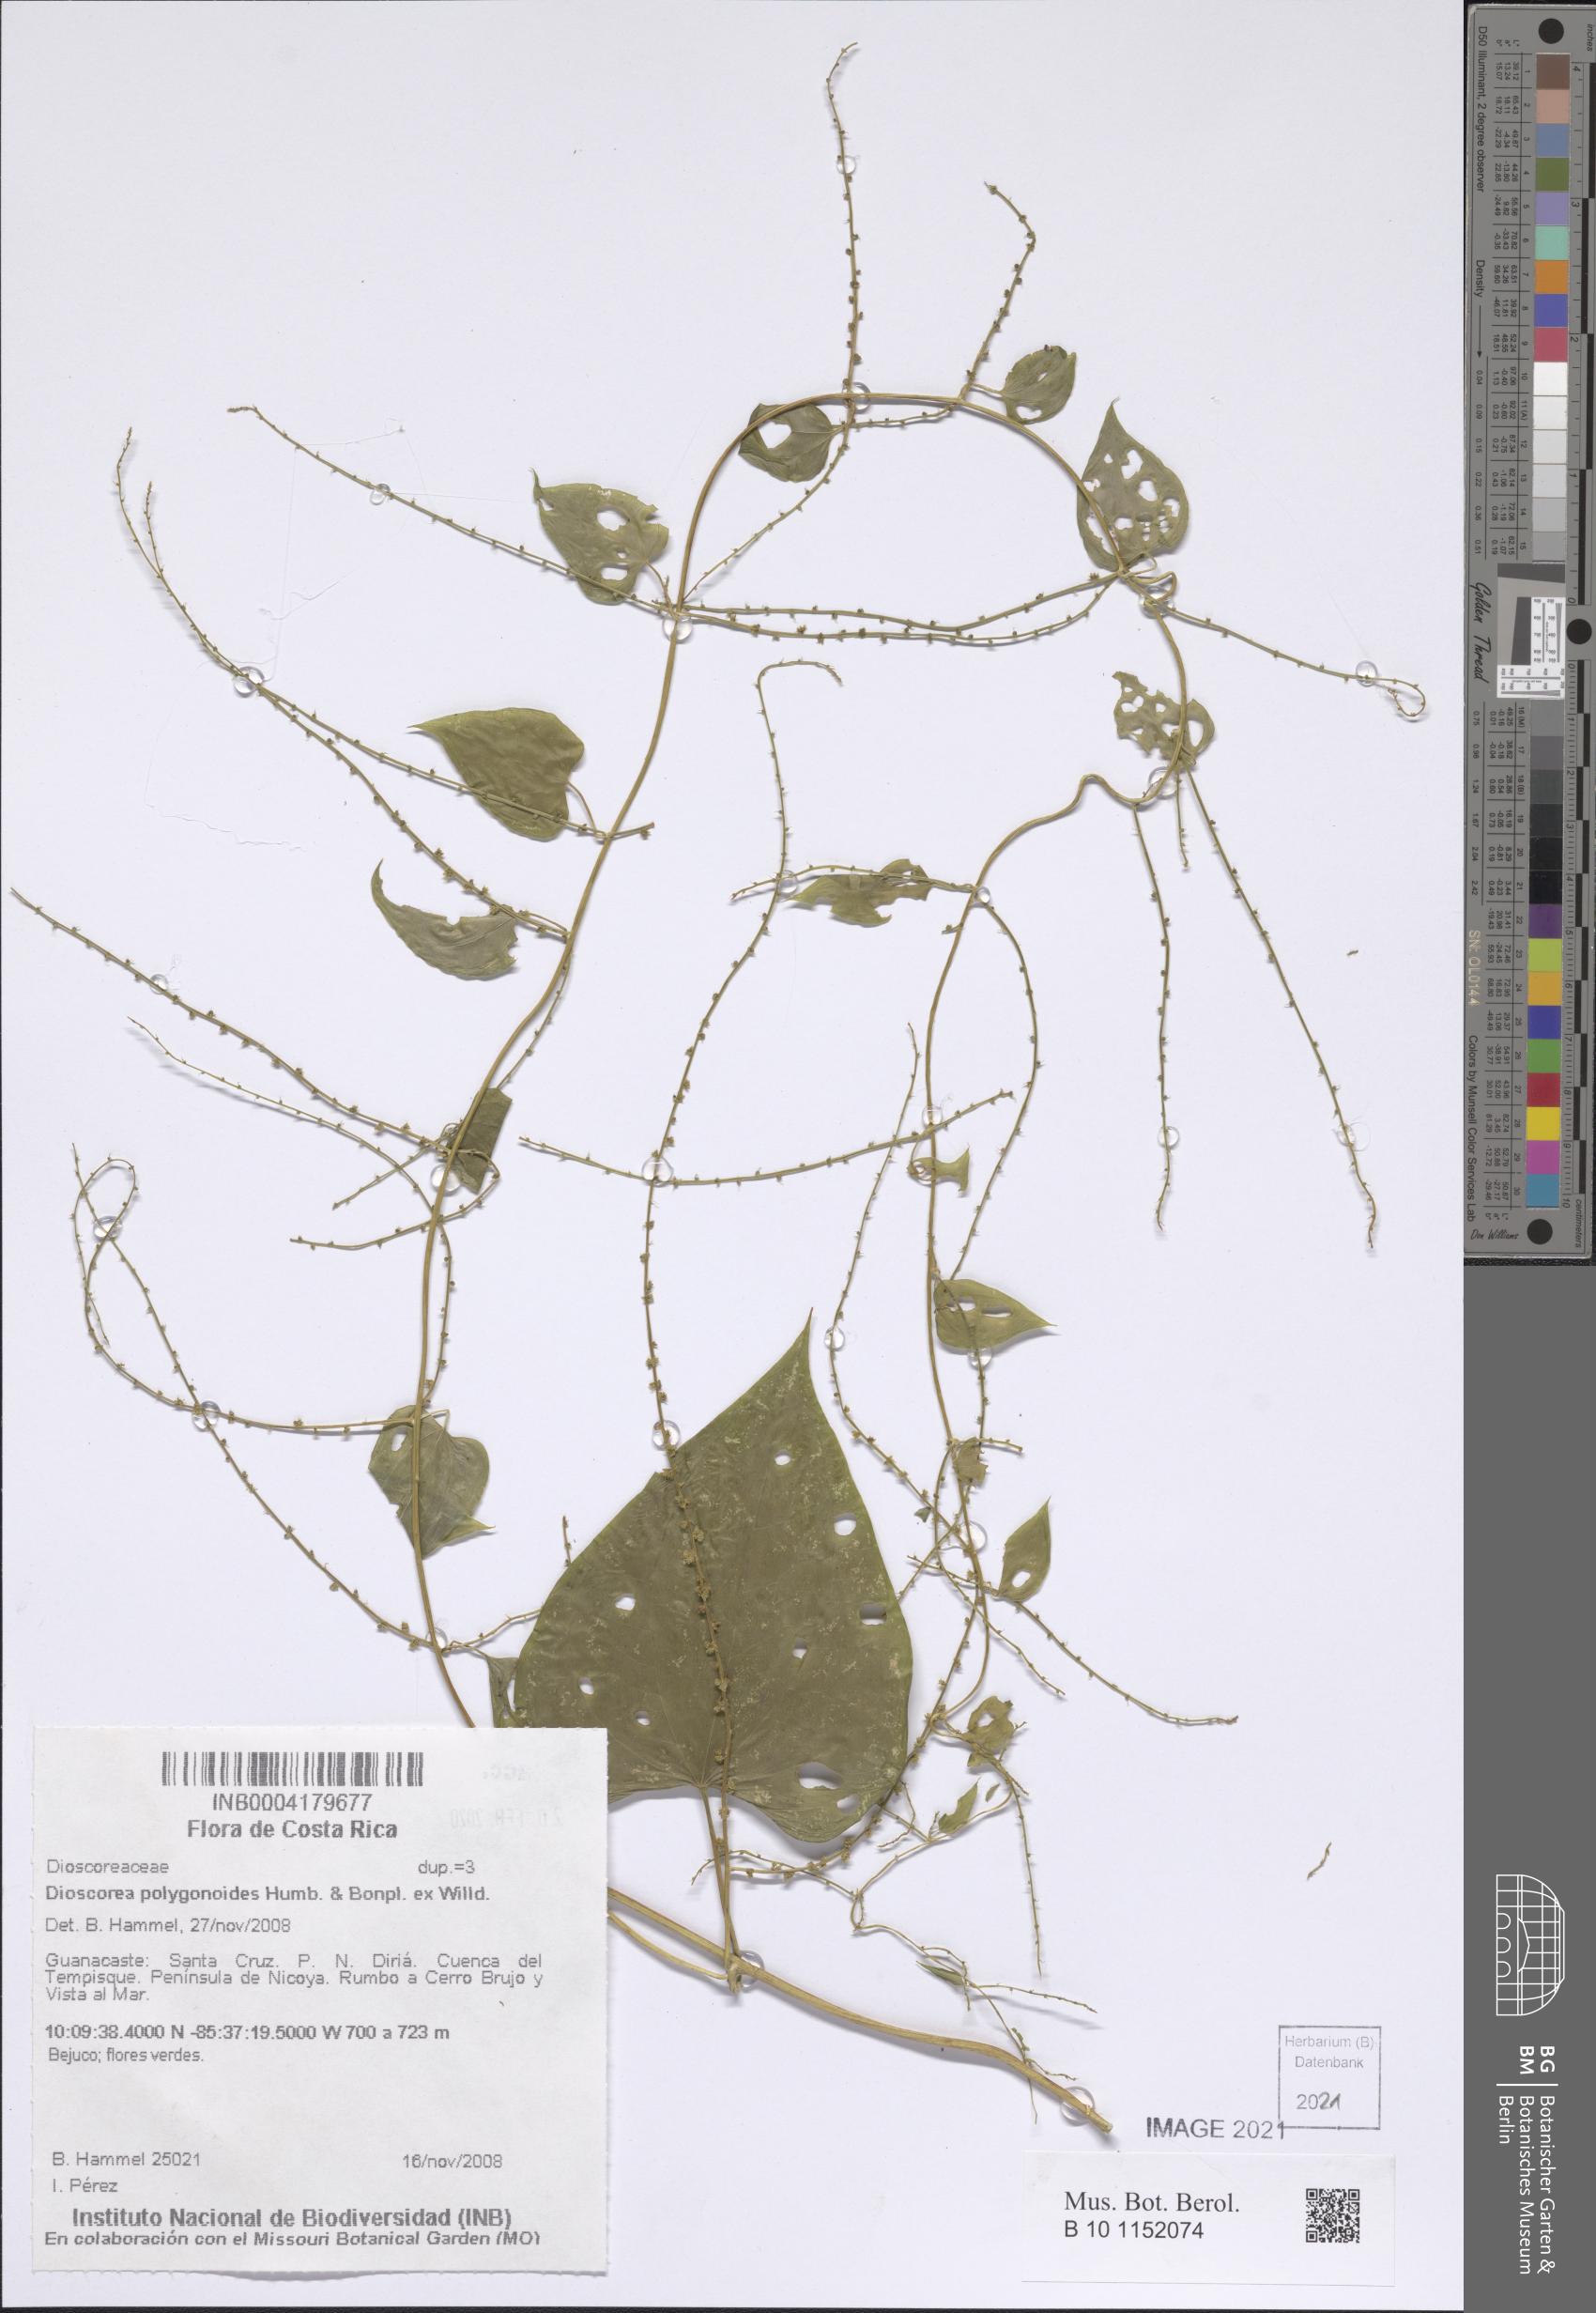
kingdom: Plantae
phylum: Tracheophyta
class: Liliopsida
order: Dioscoreales
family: Dioscoreaceae
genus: Dioscorea
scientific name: Dioscorea polygonoides
